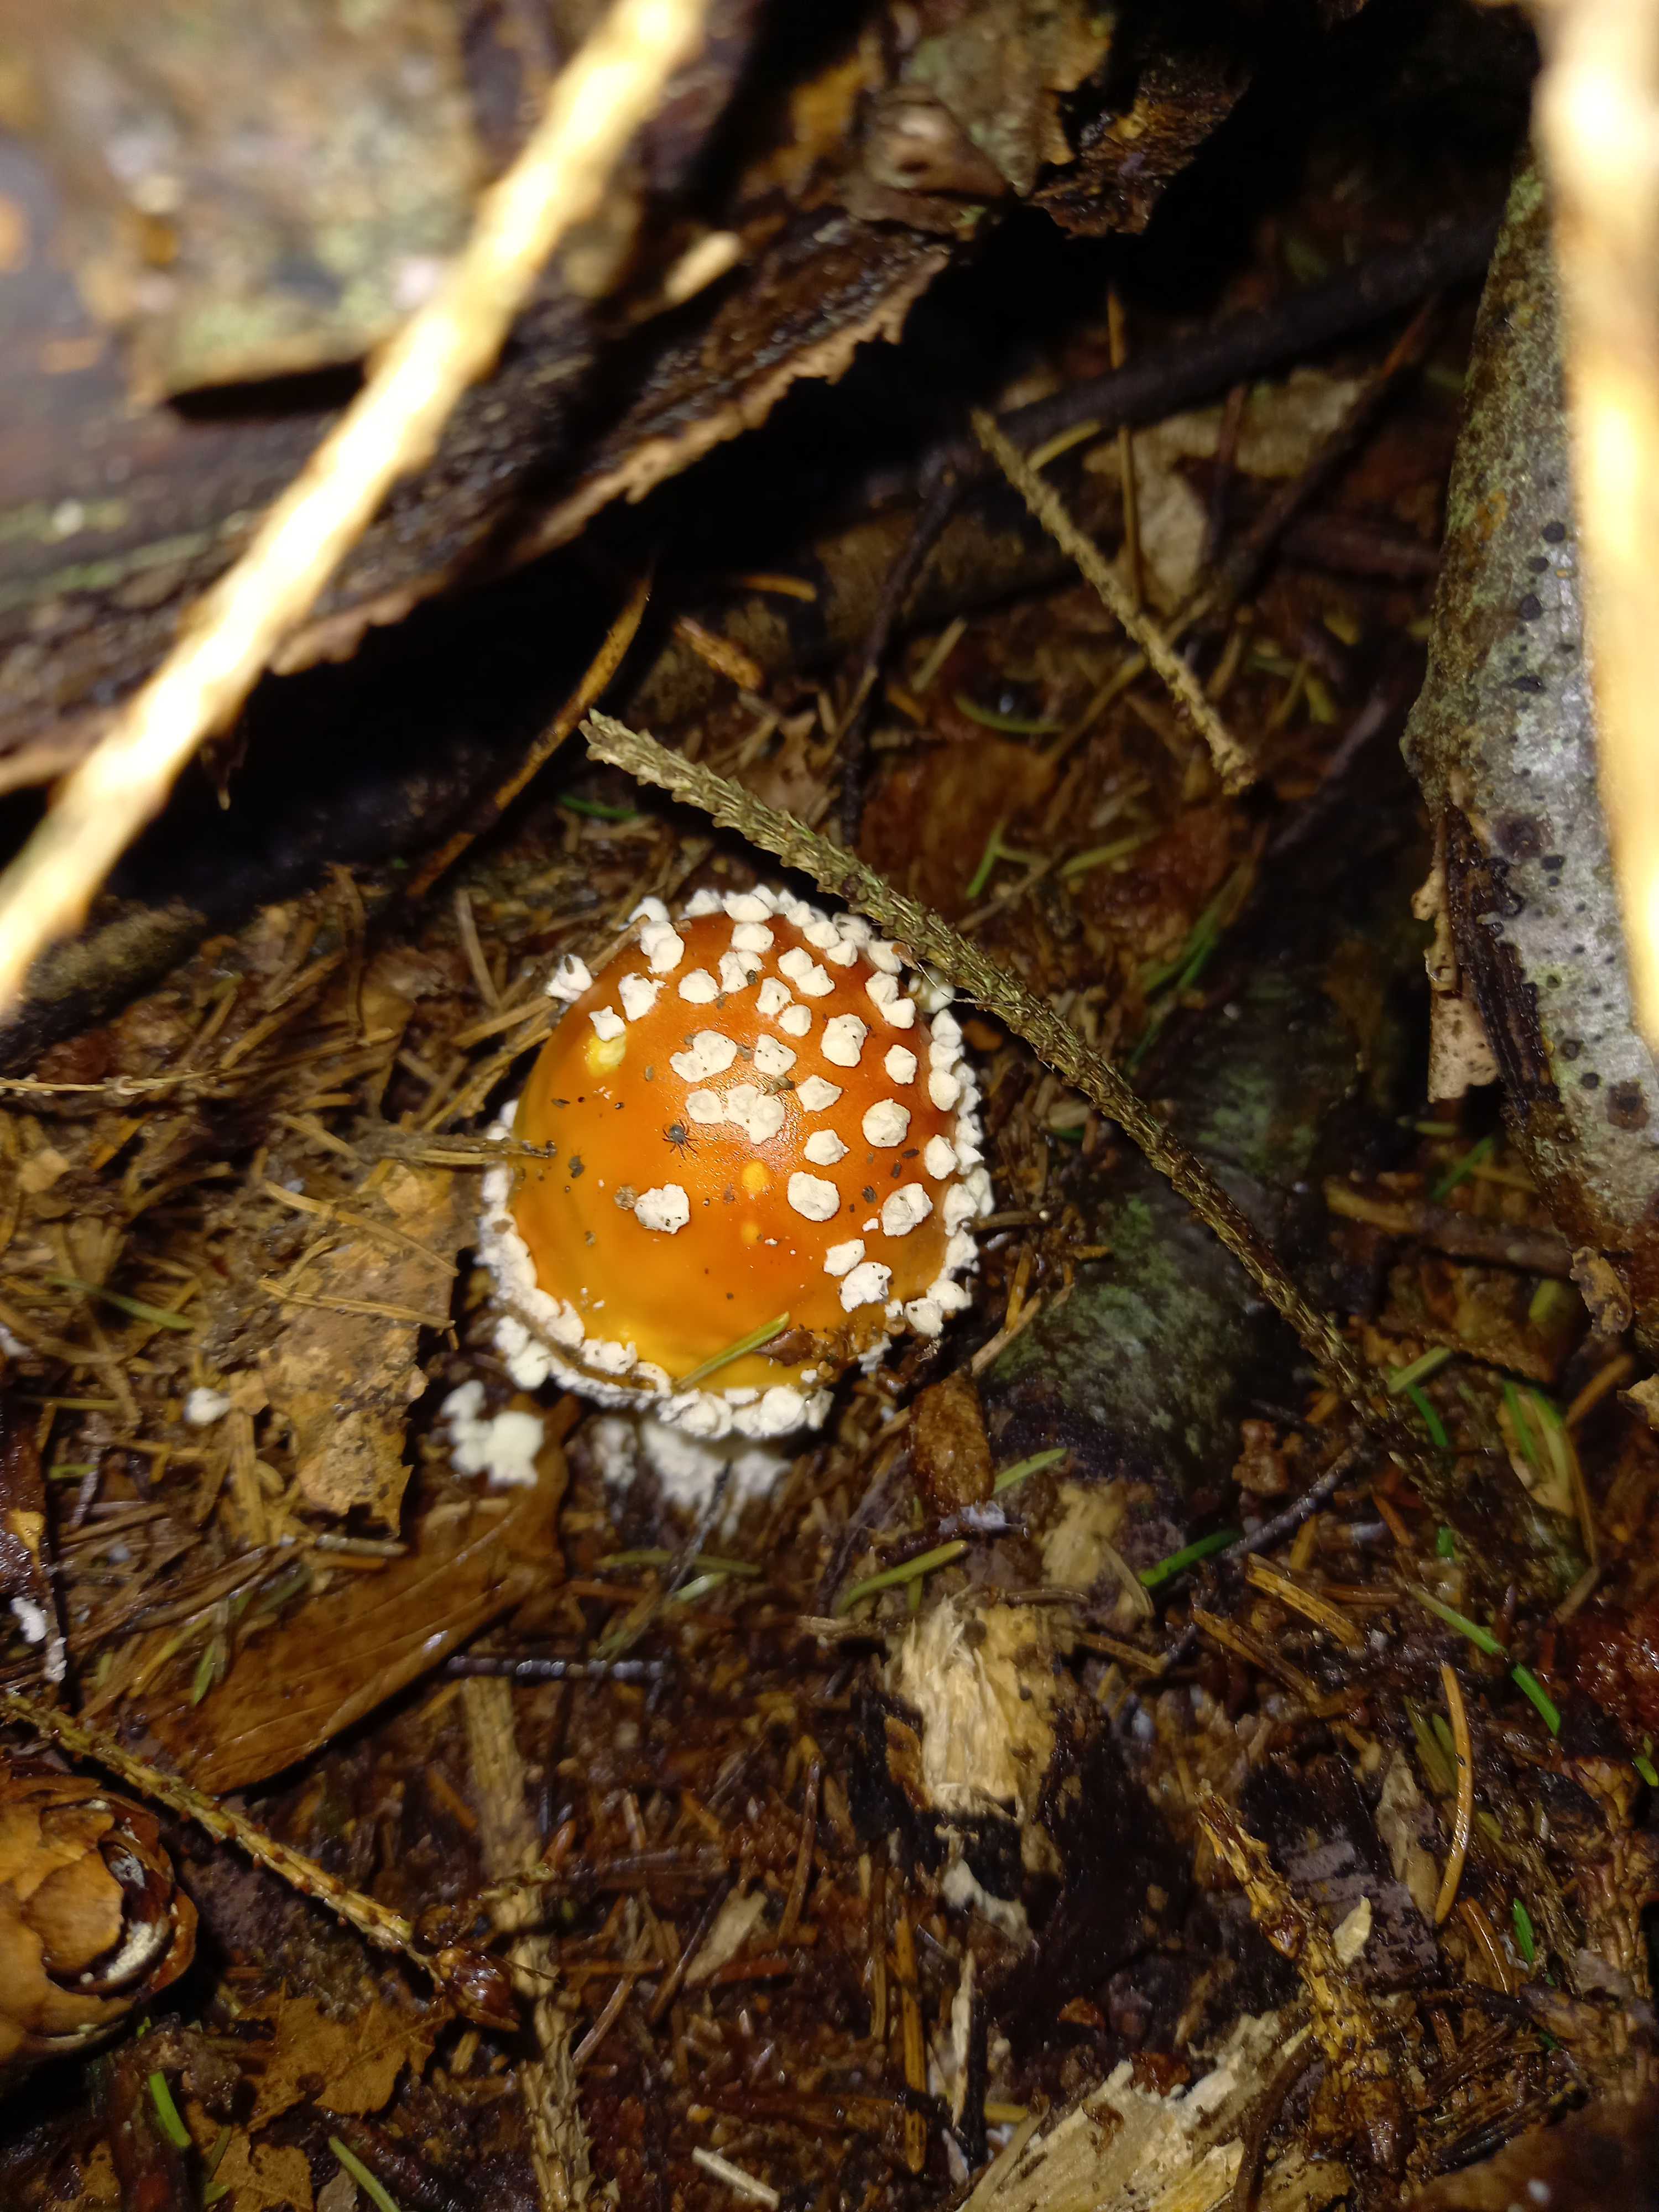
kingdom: Fungi
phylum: Basidiomycota
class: Agaricomycetes
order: Agaricales
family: Amanitaceae
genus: Amanita
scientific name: Amanita muscaria
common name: rød fluesvamp
